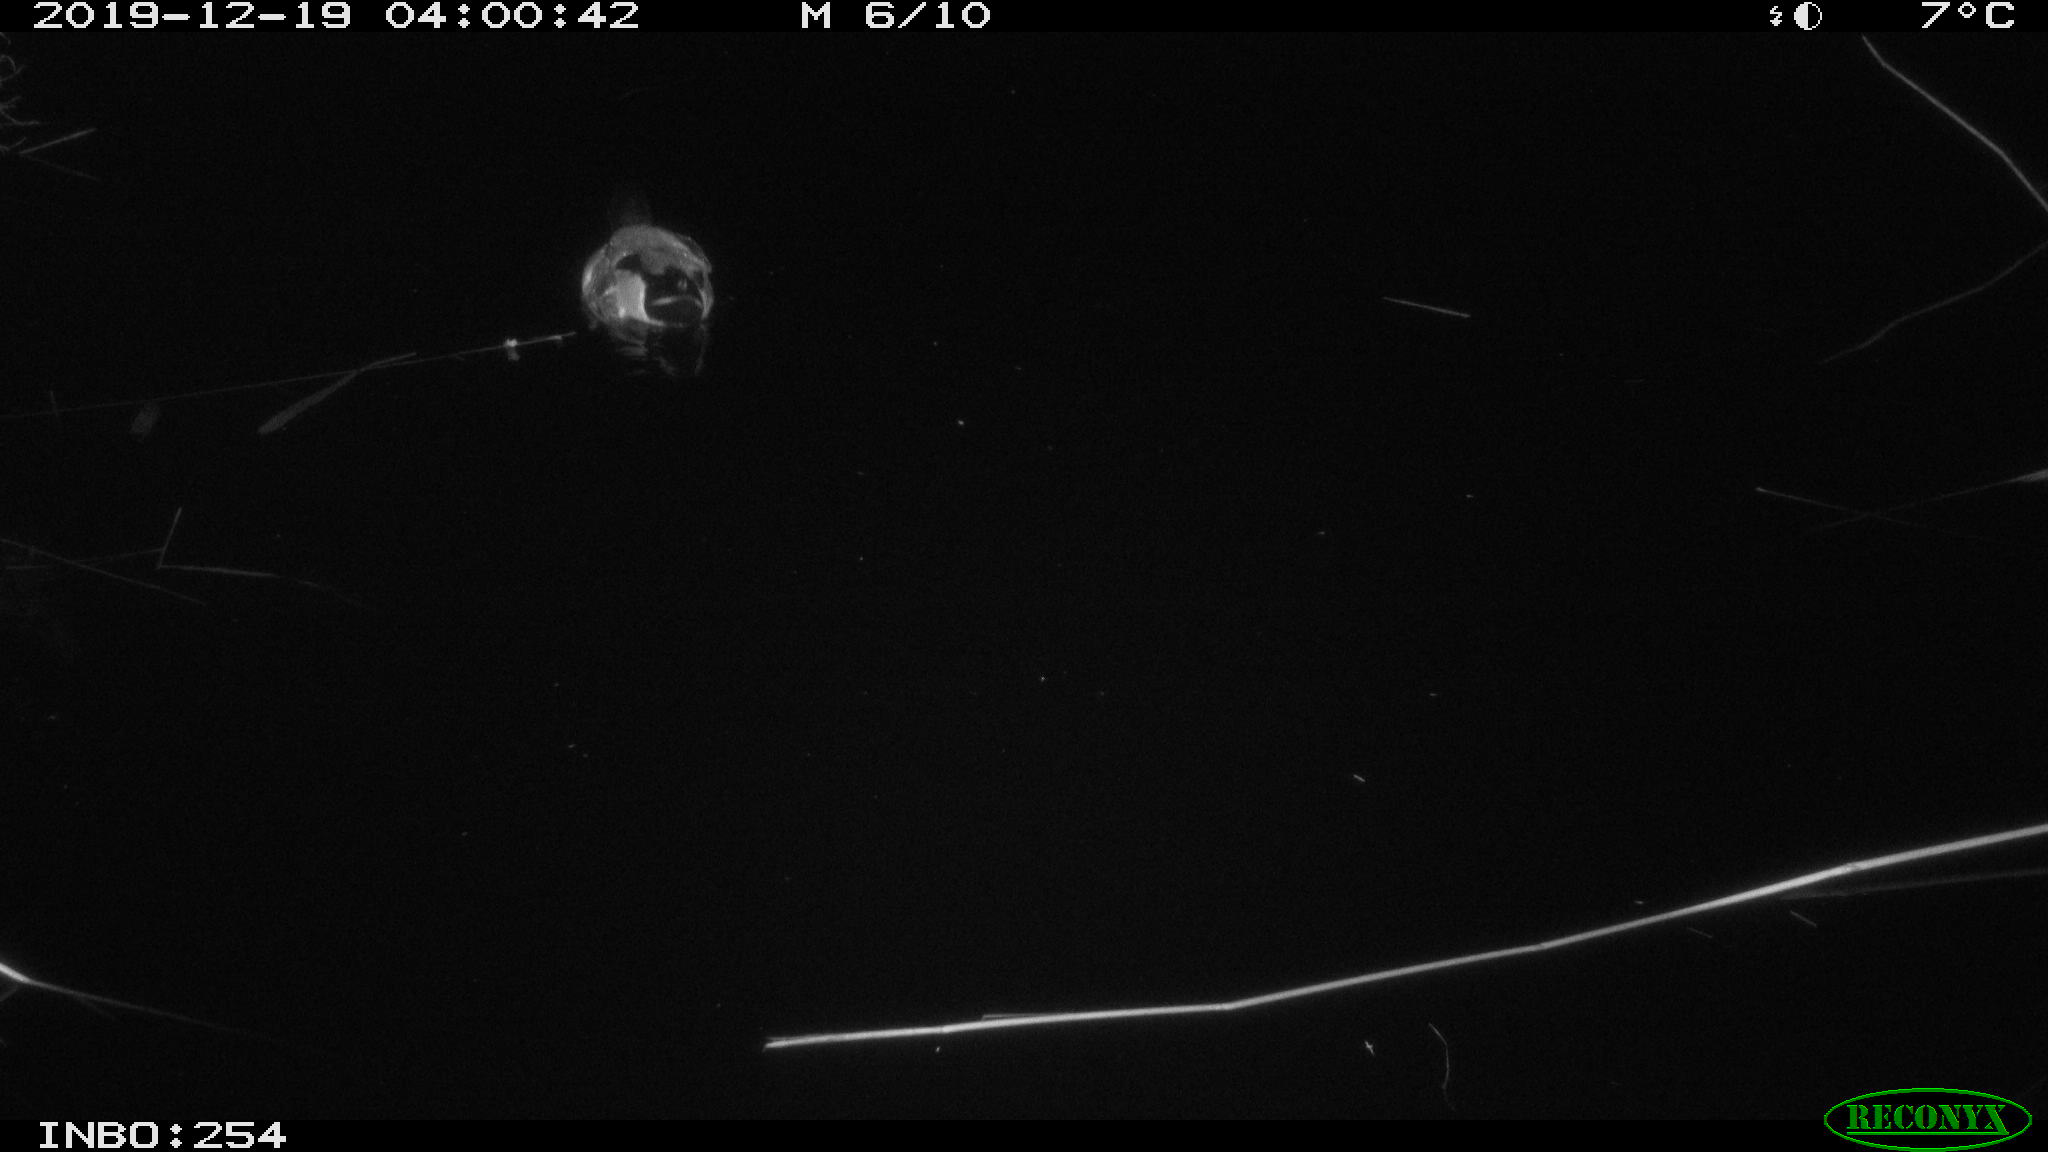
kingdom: Animalia
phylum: Chordata
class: Aves
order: Anseriformes
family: Anatidae
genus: Anas
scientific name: Anas platyrhynchos
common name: Mallard
